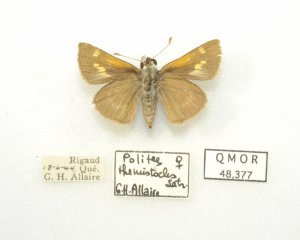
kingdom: Animalia
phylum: Arthropoda
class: Insecta
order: Lepidoptera
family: Hesperiidae
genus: Polites
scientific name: Polites themistocles
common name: Tawny-edged Skipper
